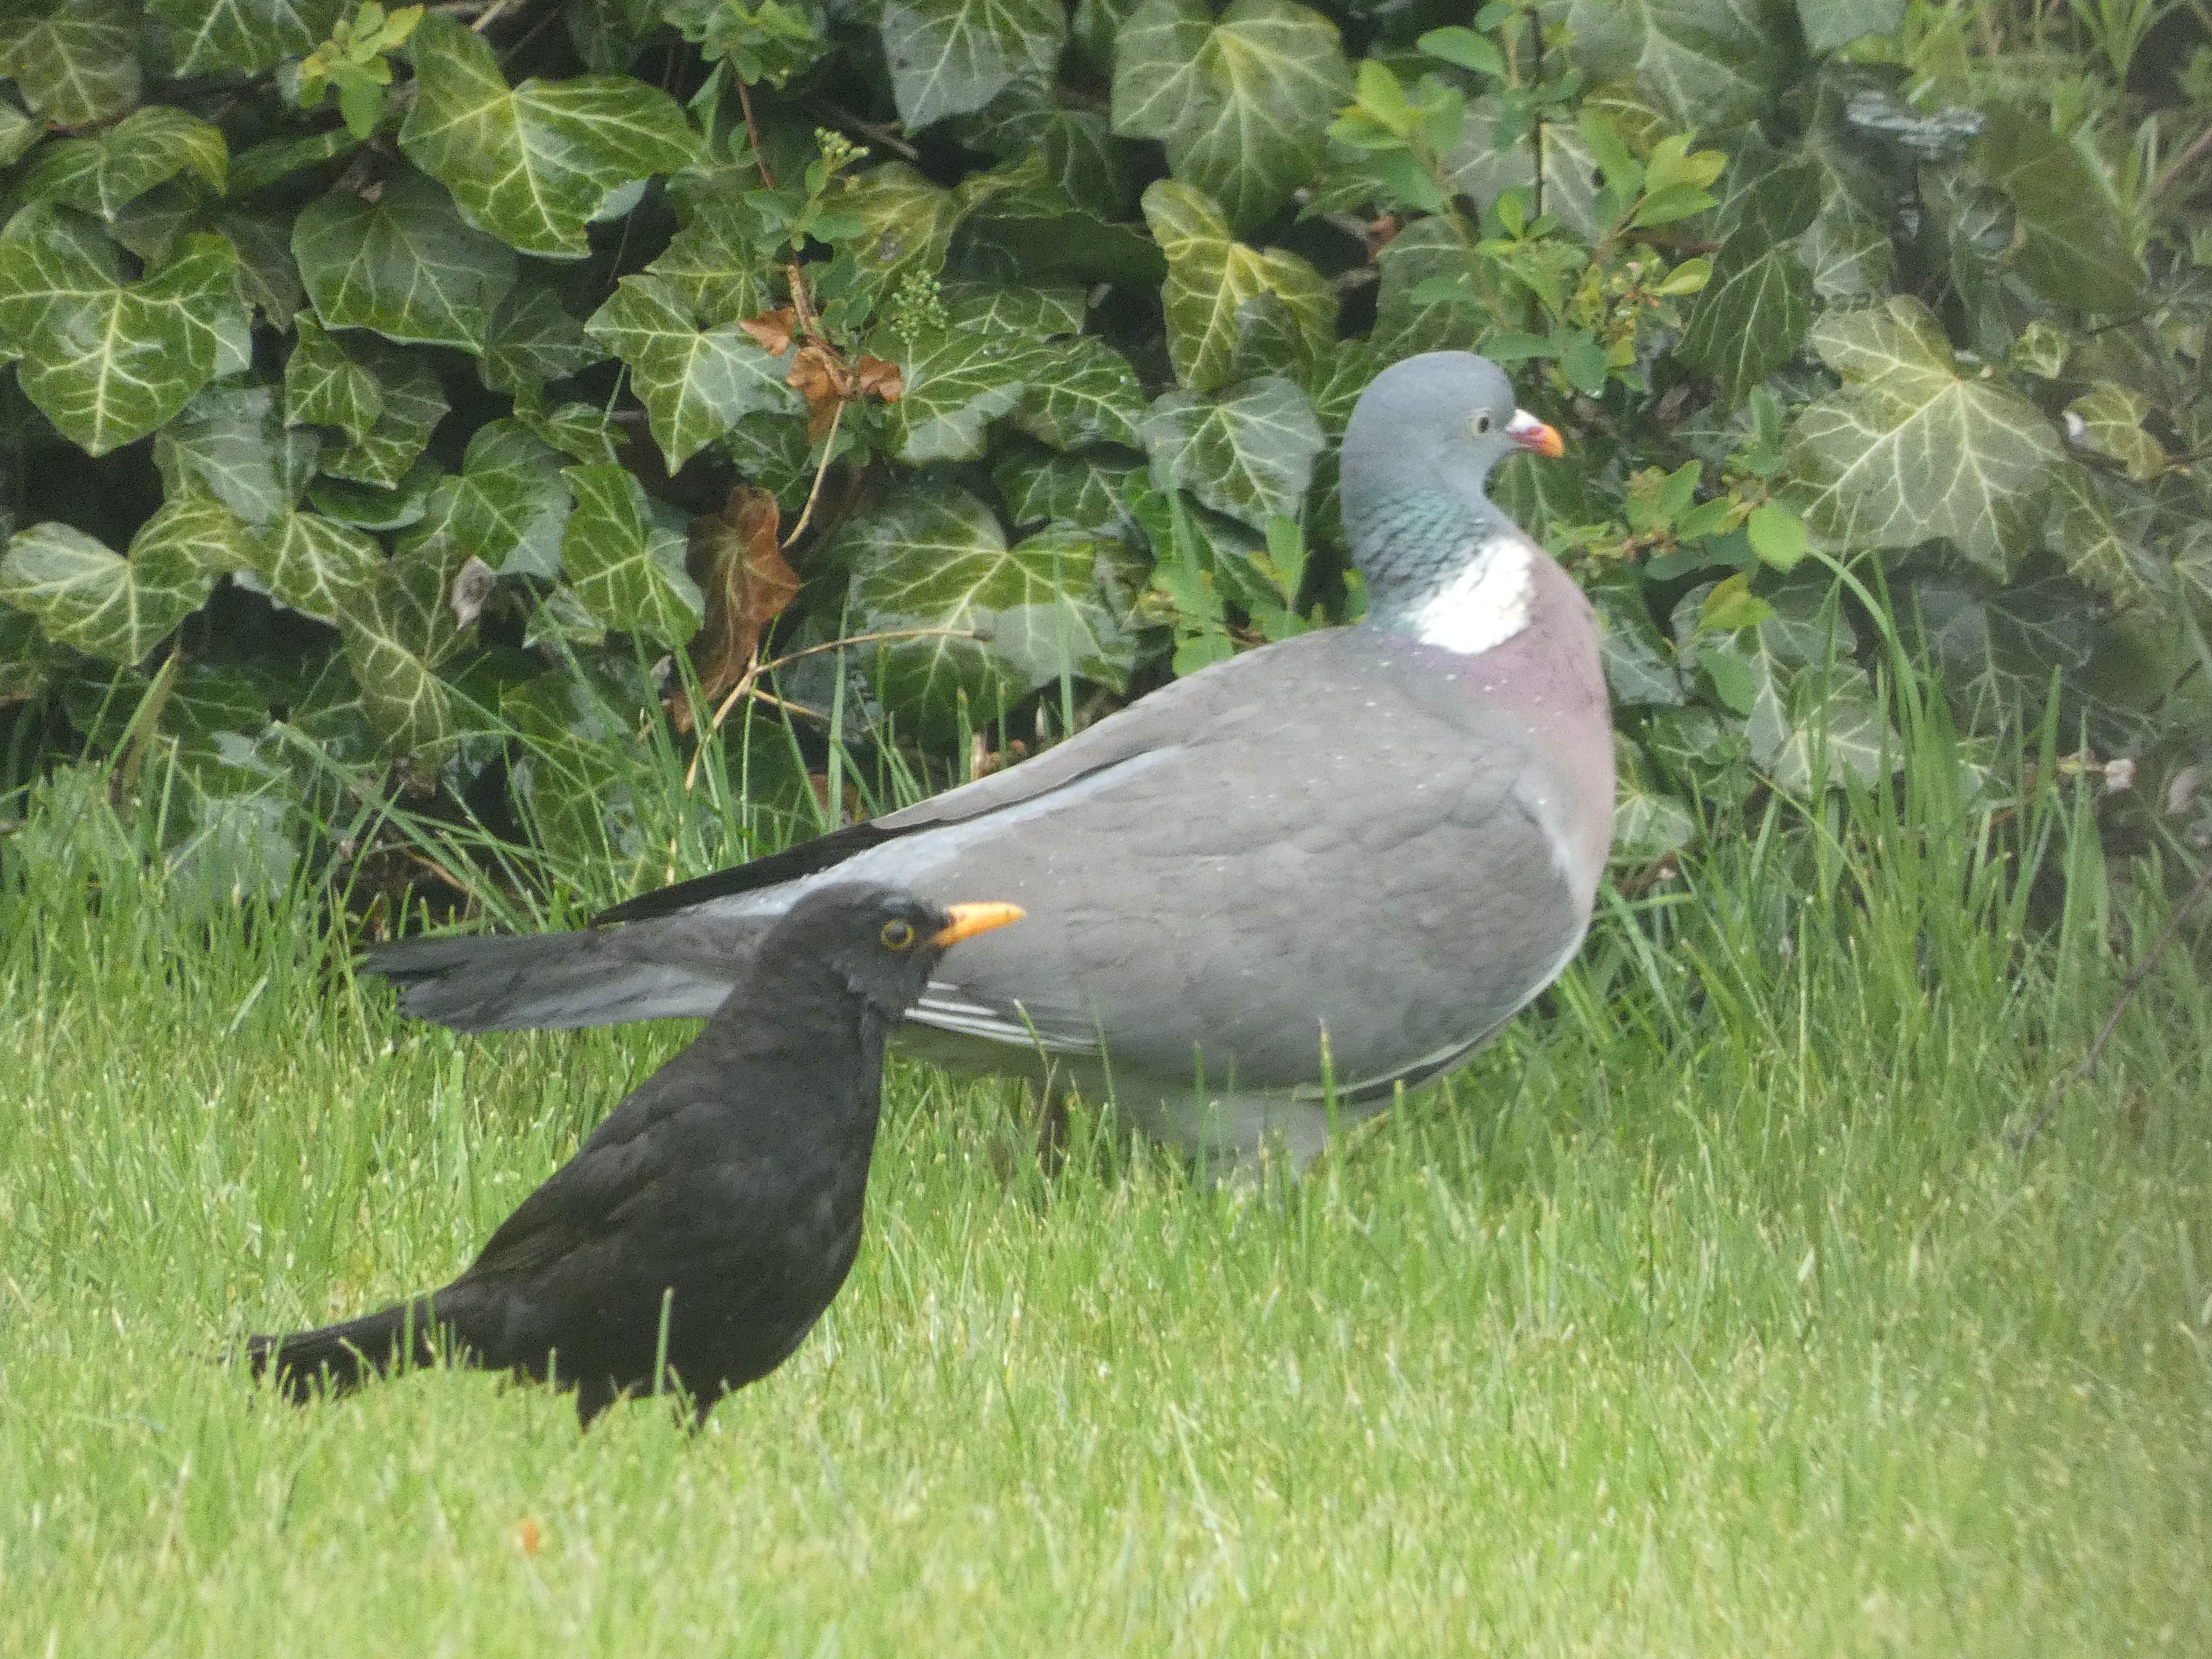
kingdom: Animalia
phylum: Chordata
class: Aves
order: Columbiformes
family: Columbidae
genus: Columba
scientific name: Columba palumbus
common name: Ringdue
